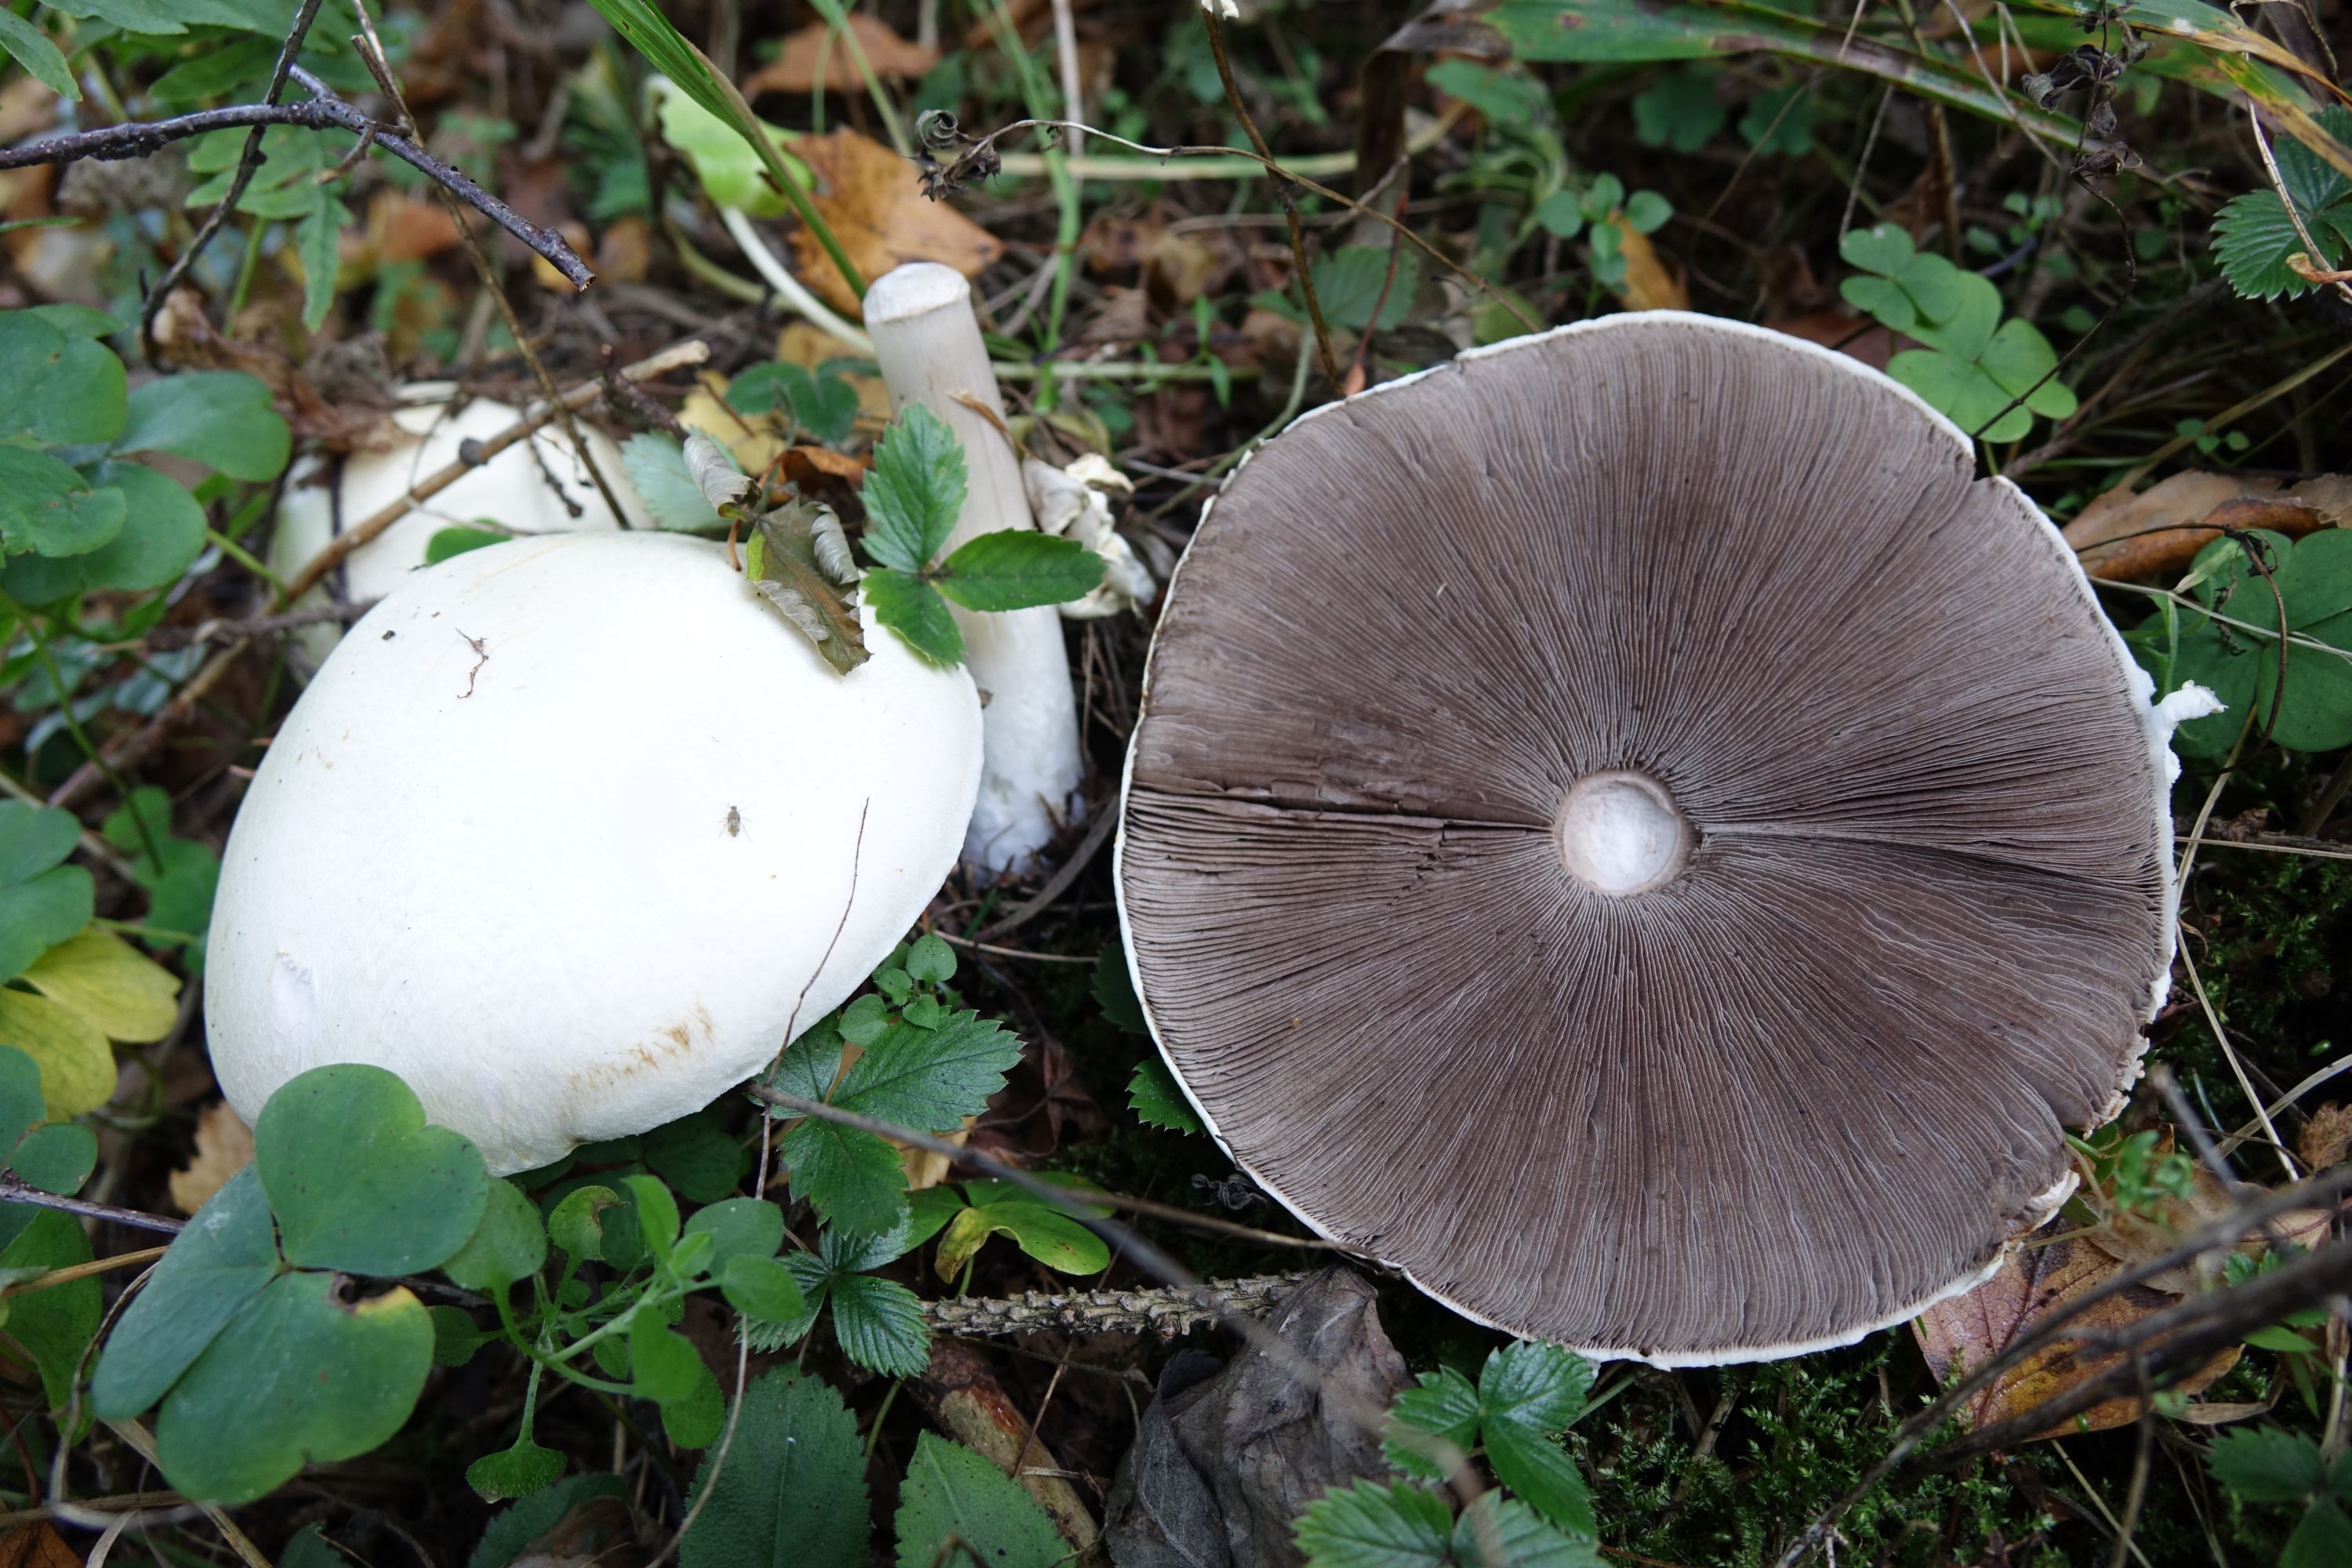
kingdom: Fungi
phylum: Basidiomycota
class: Agaricomycetes
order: Agaricales
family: Agaricaceae
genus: Agaricus
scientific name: Agaricus sylvicola
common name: Wood mushroom
